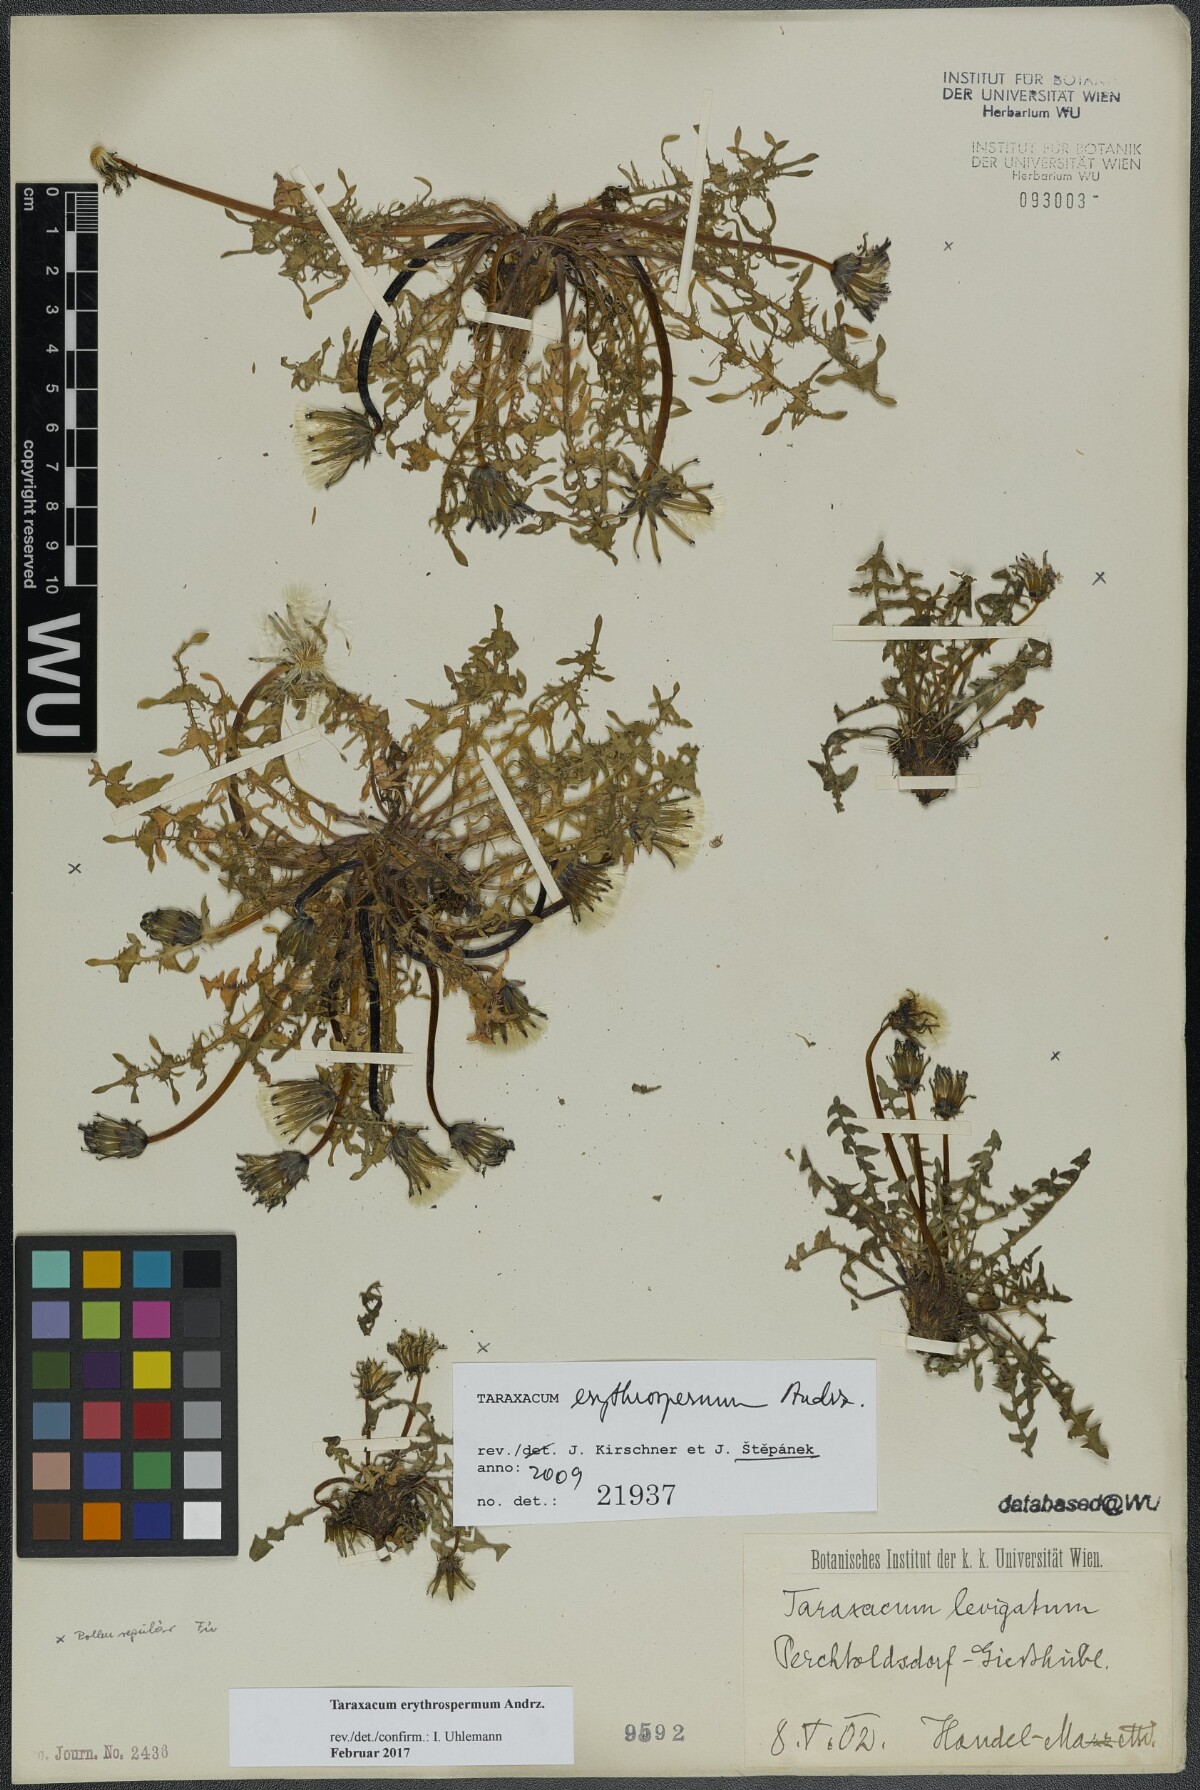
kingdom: Plantae
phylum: Tracheophyta
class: Magnoliopsida
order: Asterales
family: Asteraceae
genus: Taraxacum
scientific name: Taraxacum erythrospermum
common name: Rock dandelion
